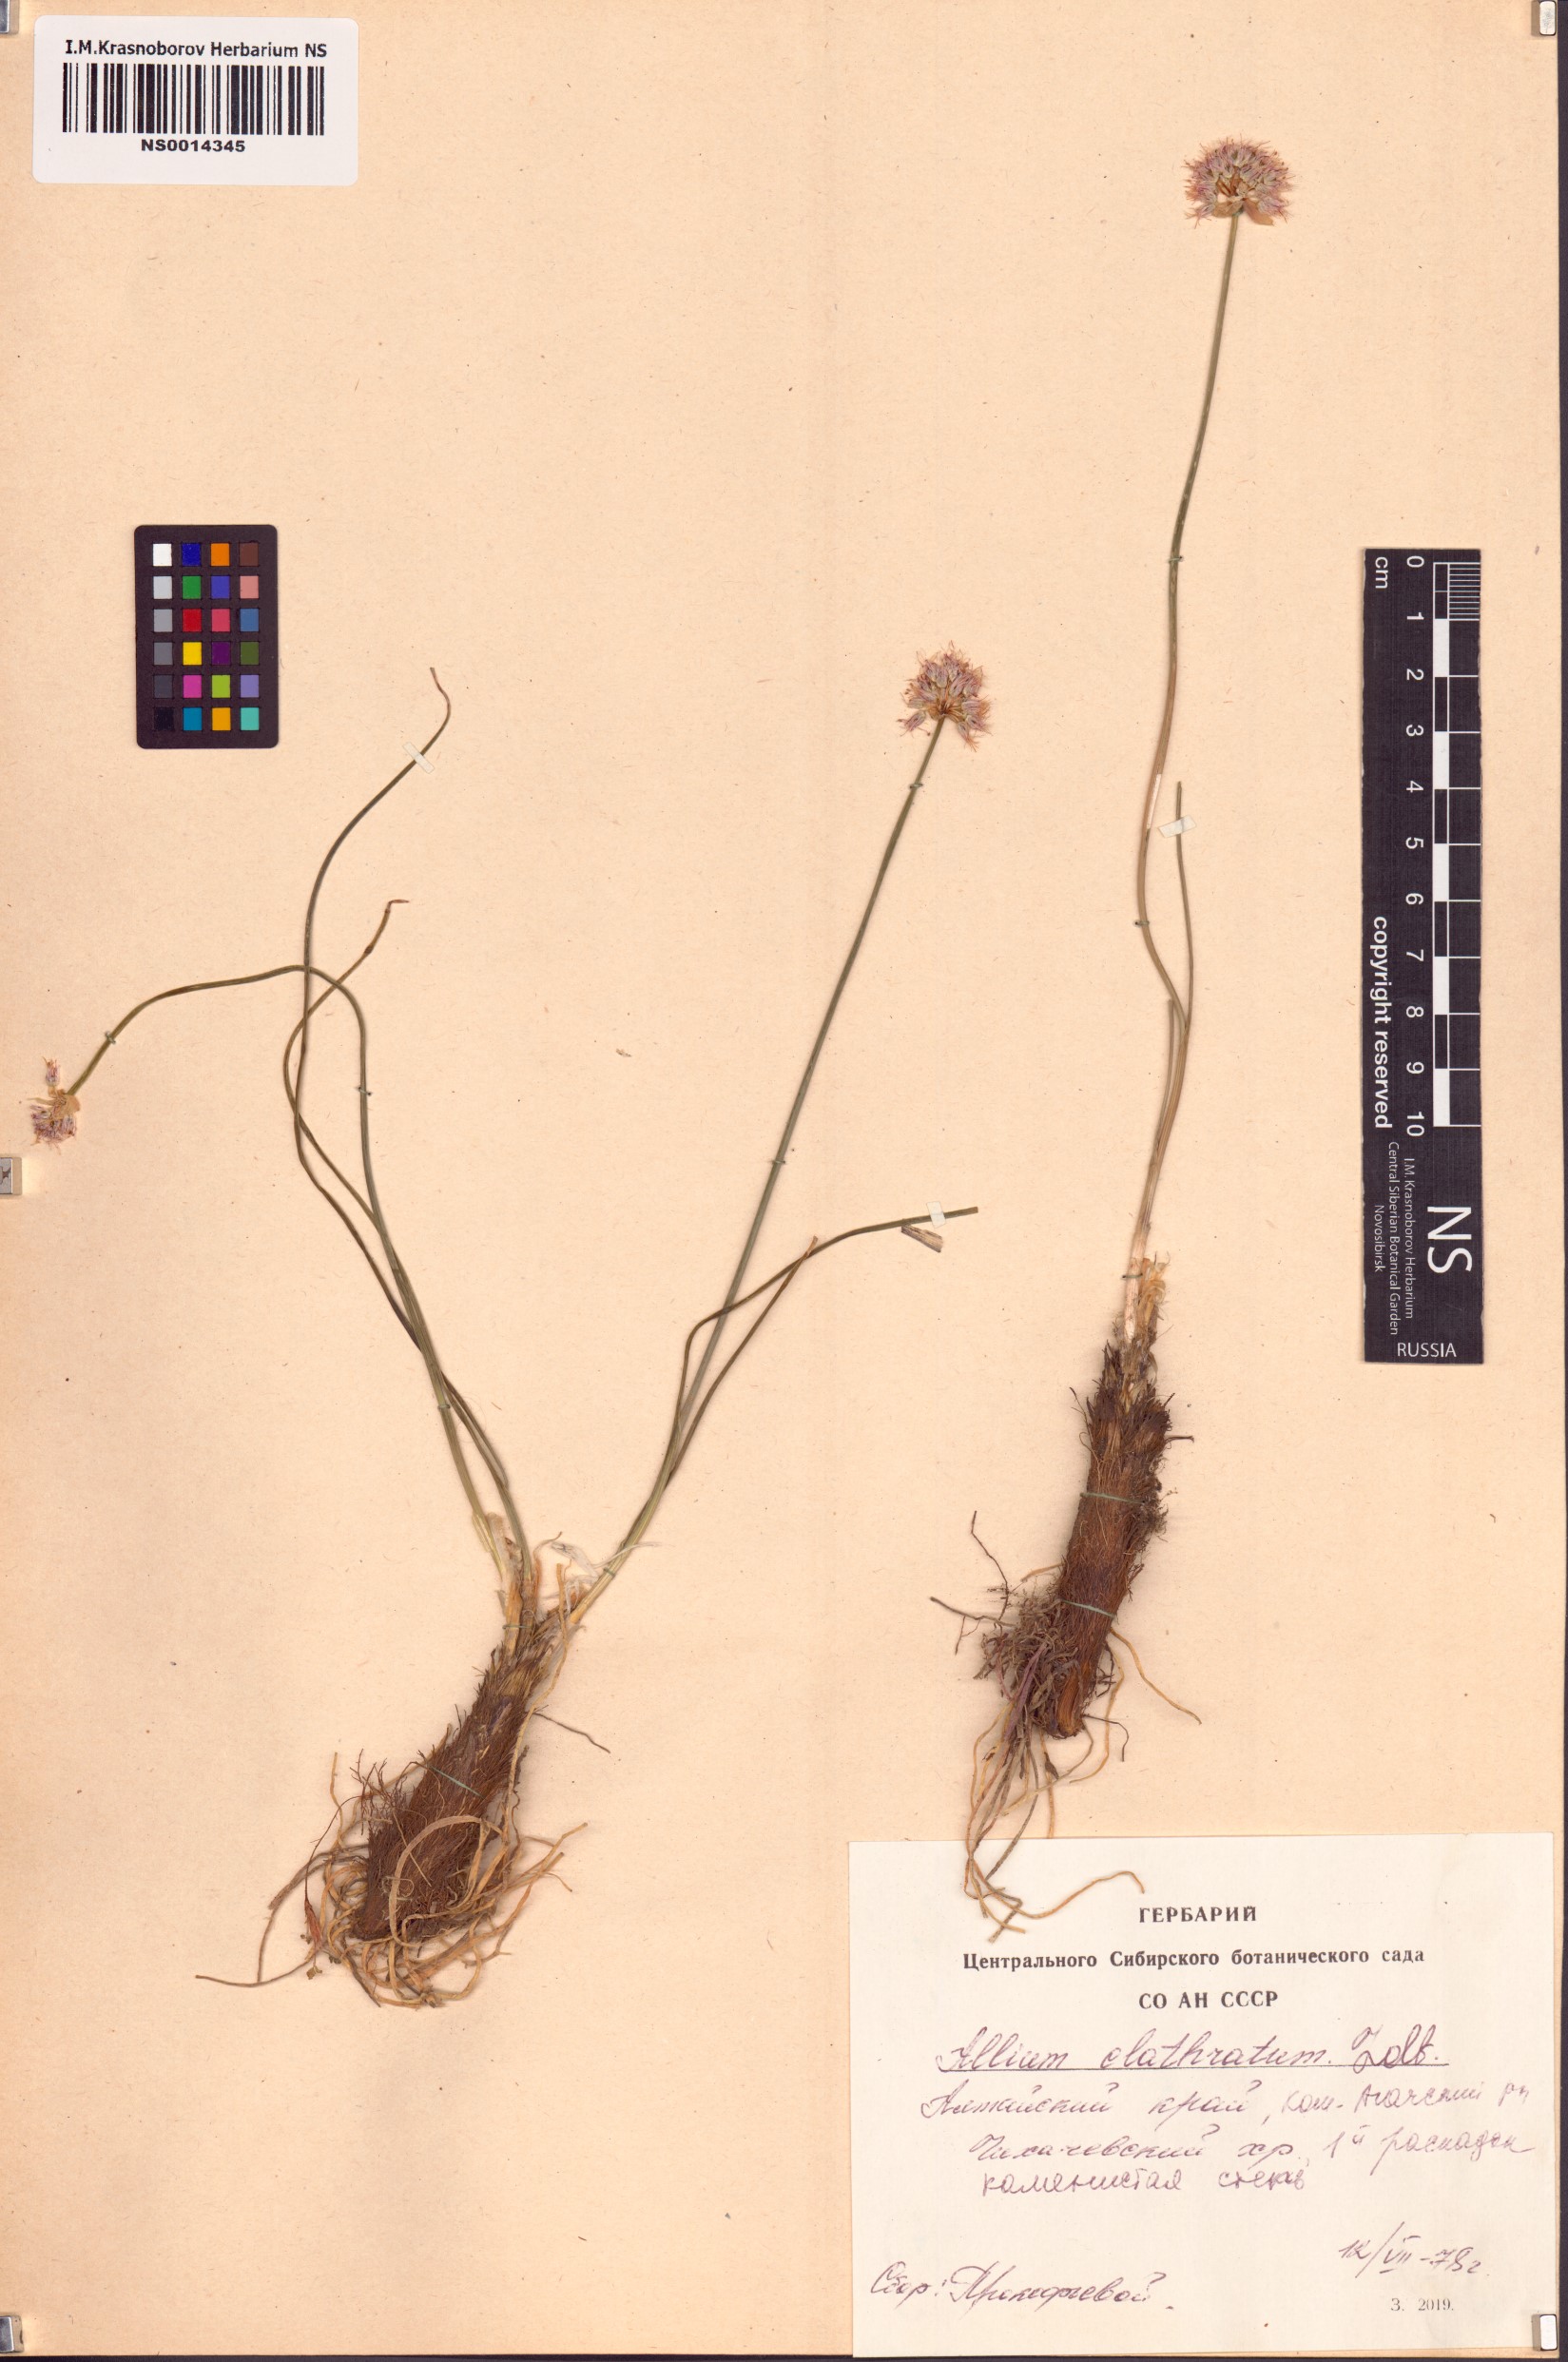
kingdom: Plantae
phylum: Tracheophyta
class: Liliopsida
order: Asparagales
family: Amaryllidaceae
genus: Allium
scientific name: Allium clathratum
